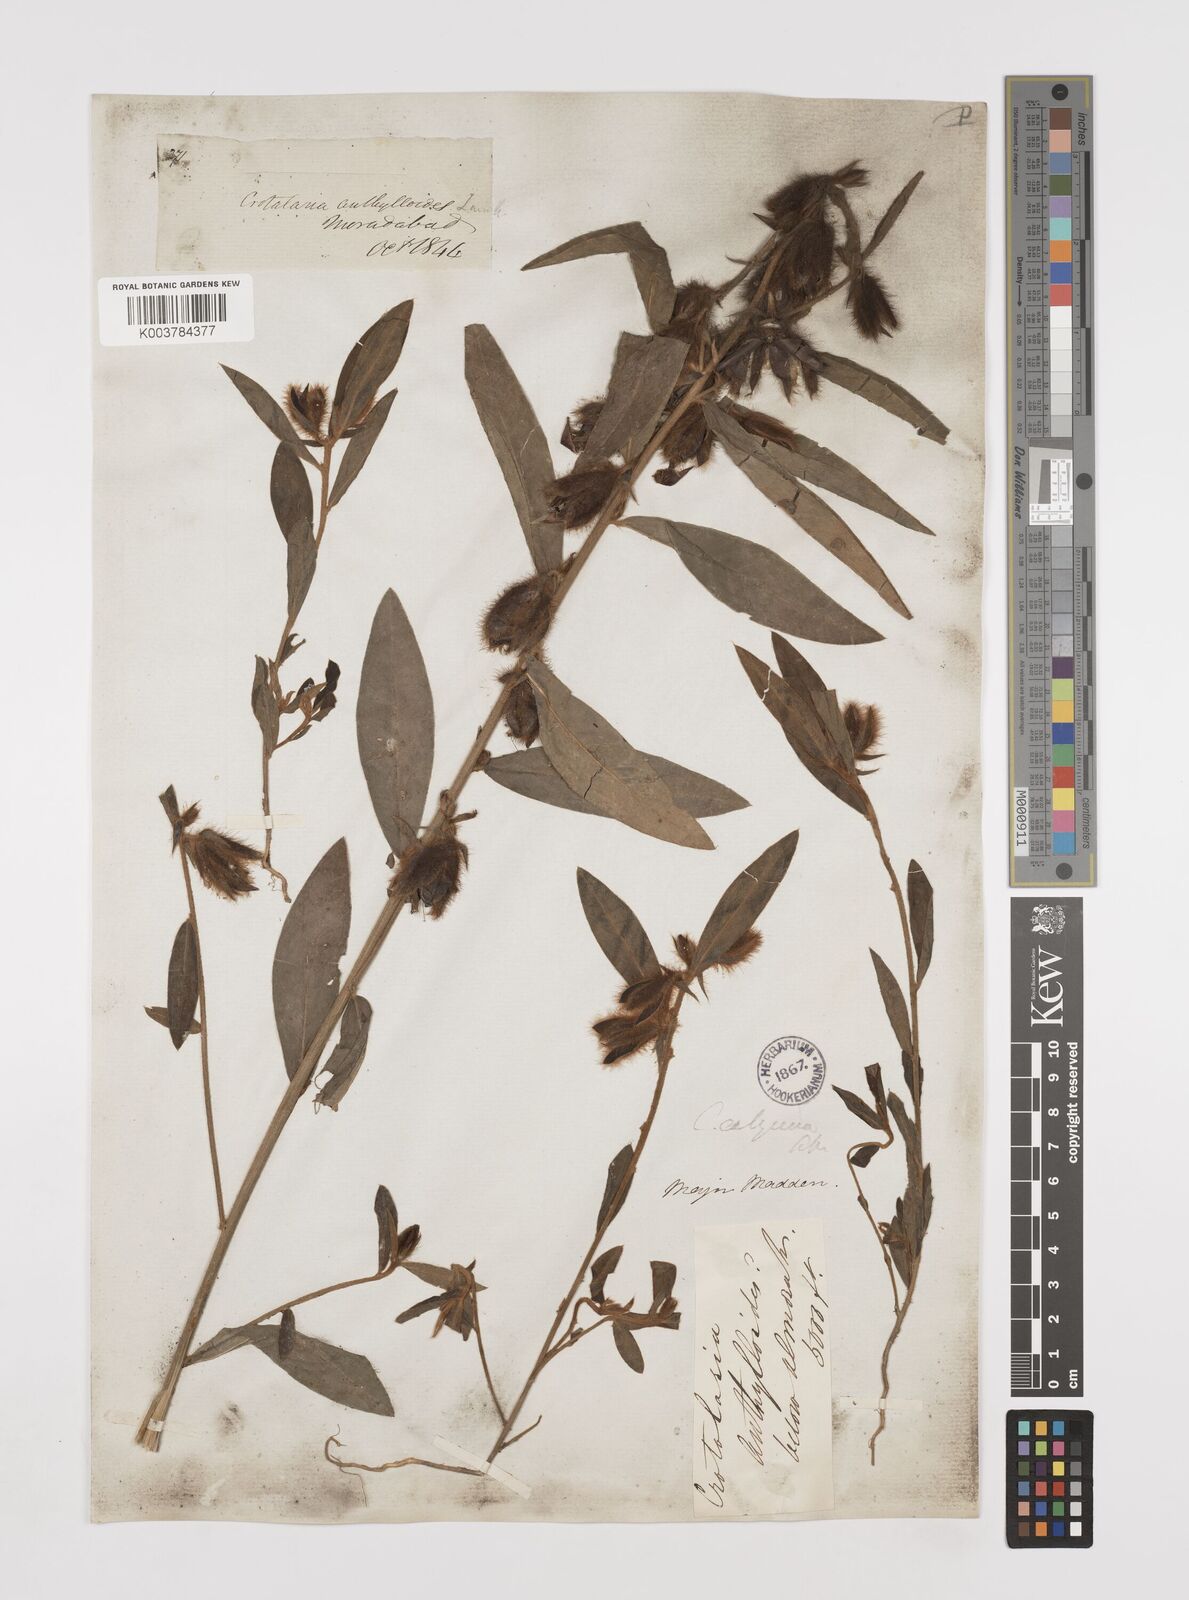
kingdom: Plantae
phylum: Tracheophyta
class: Magnoliopsida
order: Fabales
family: Fabaceae
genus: Crotalaria
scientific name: Crotalaria calycina
